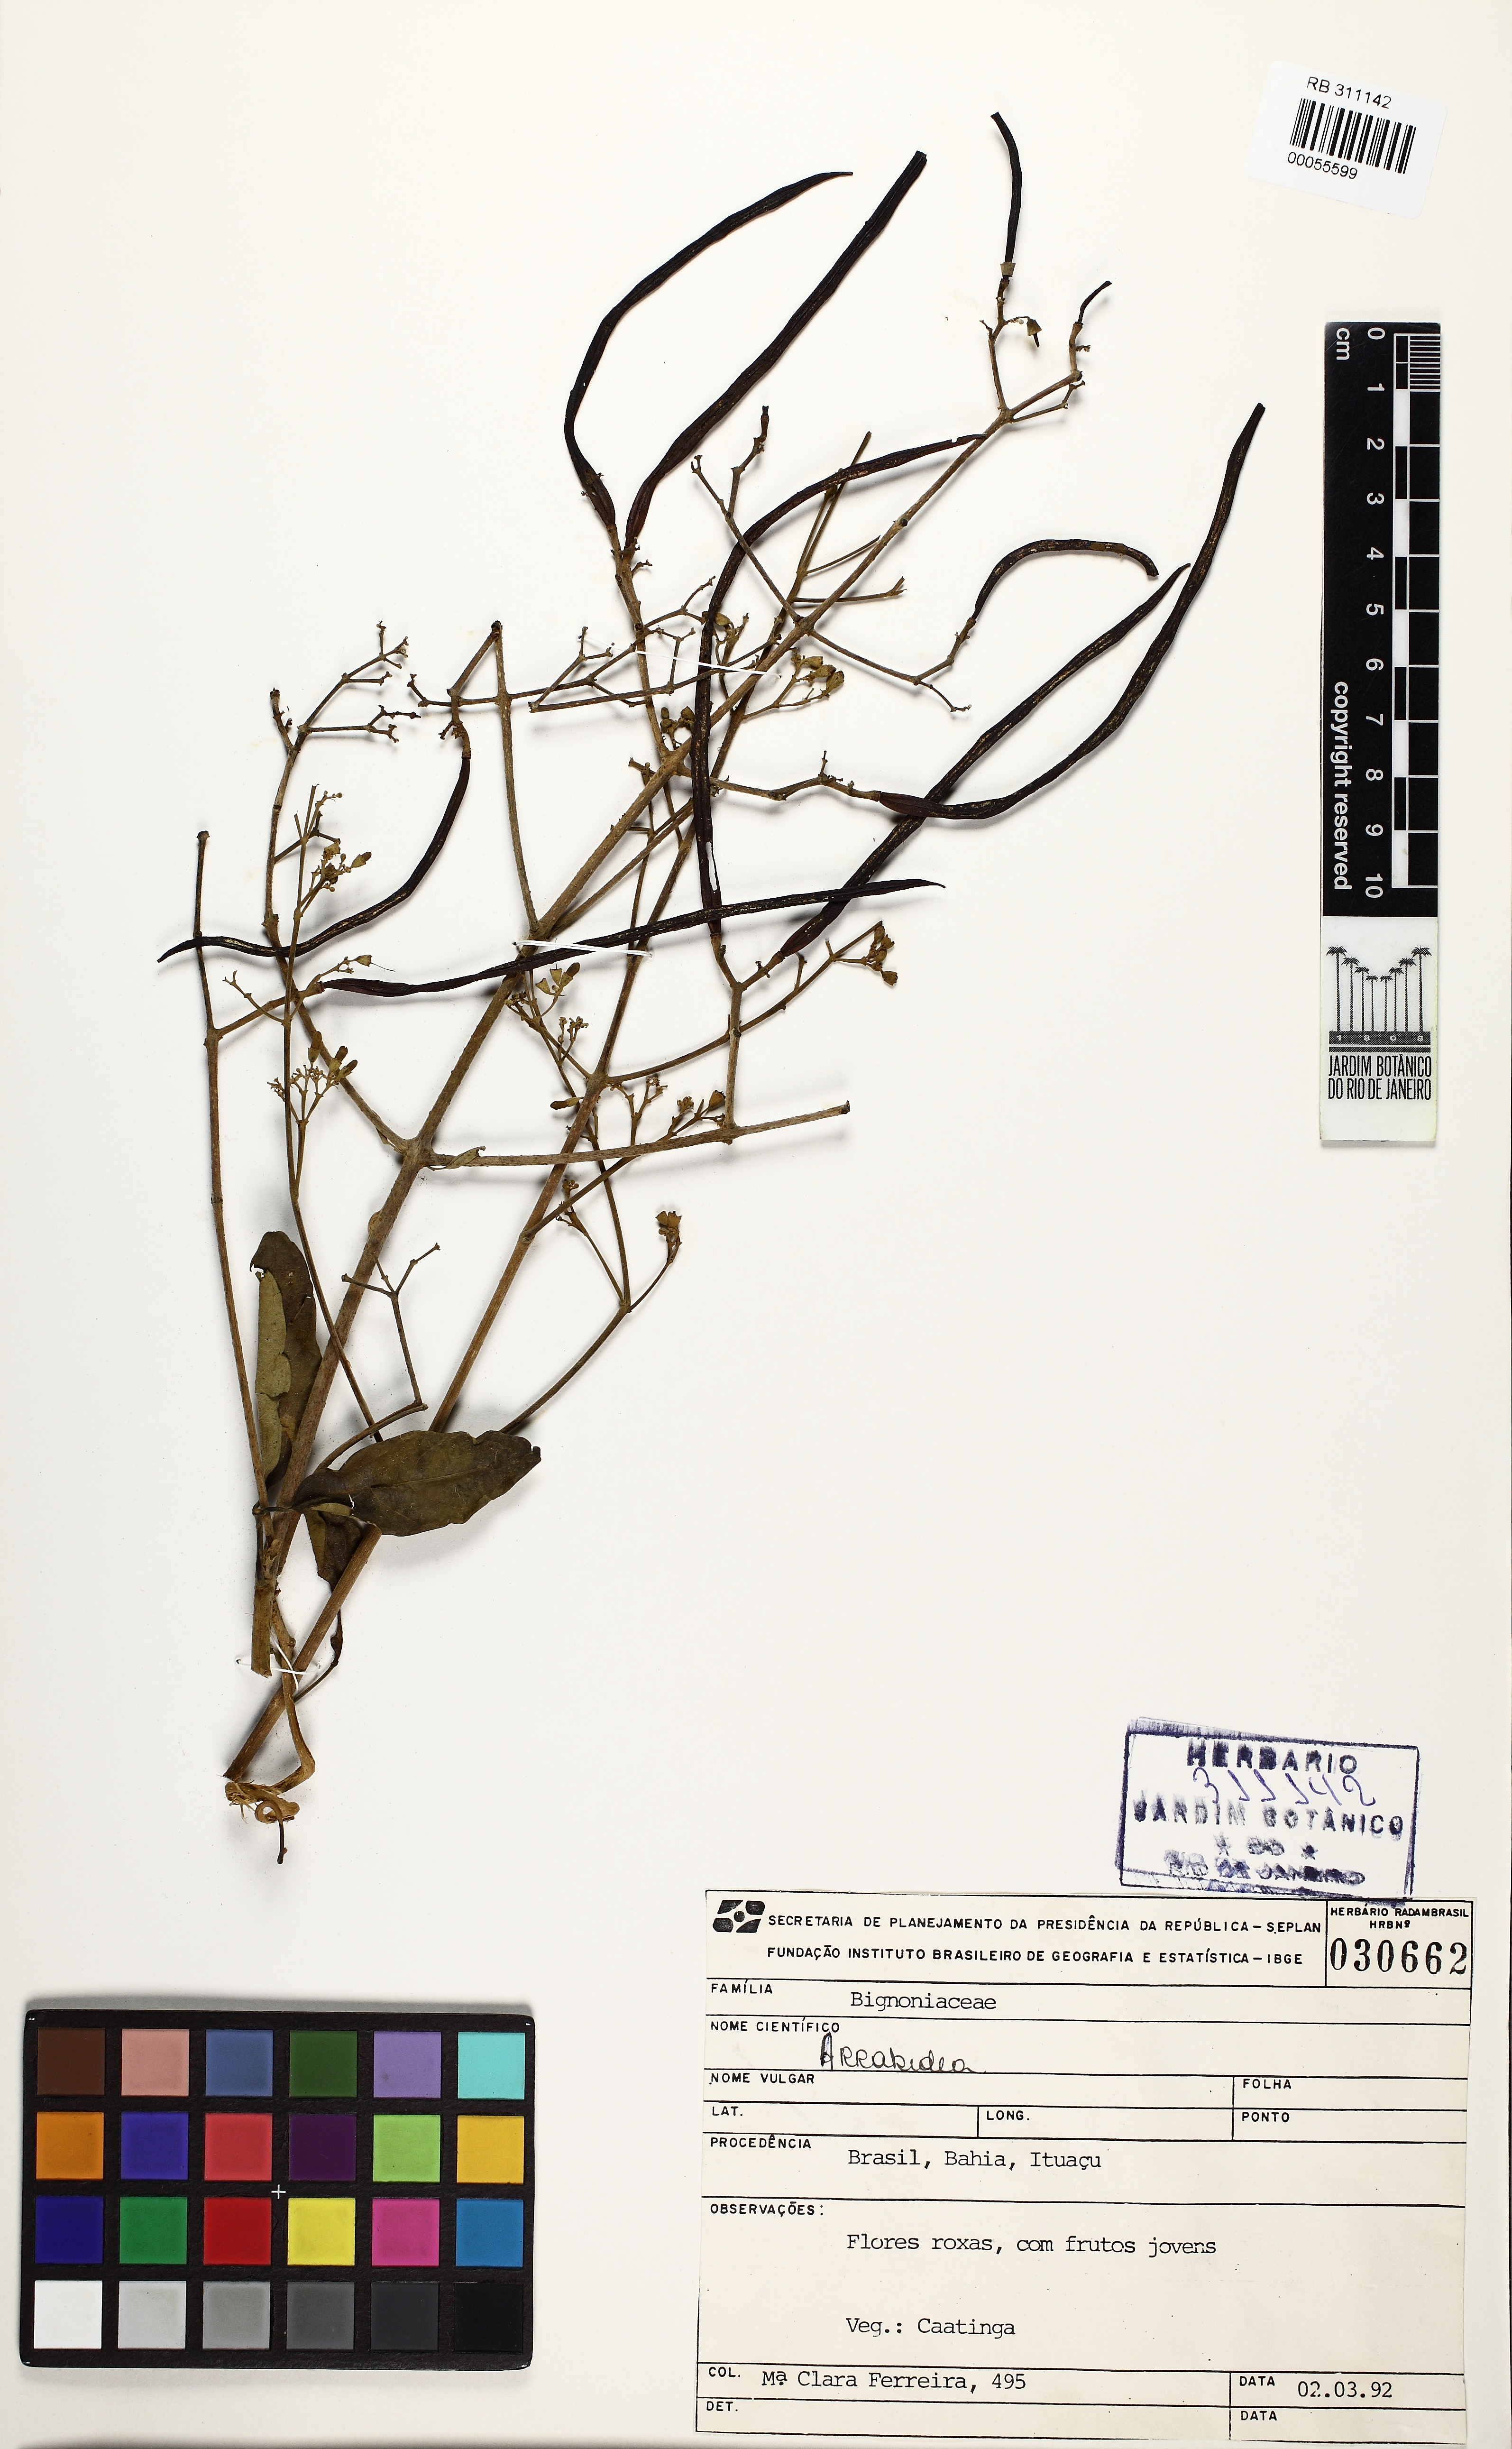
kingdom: Plantae
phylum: Tracheophyta
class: Magnoliopsida
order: Lamiales
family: Bignoniaceae
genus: Fridericia
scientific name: Fridericia cinerea
